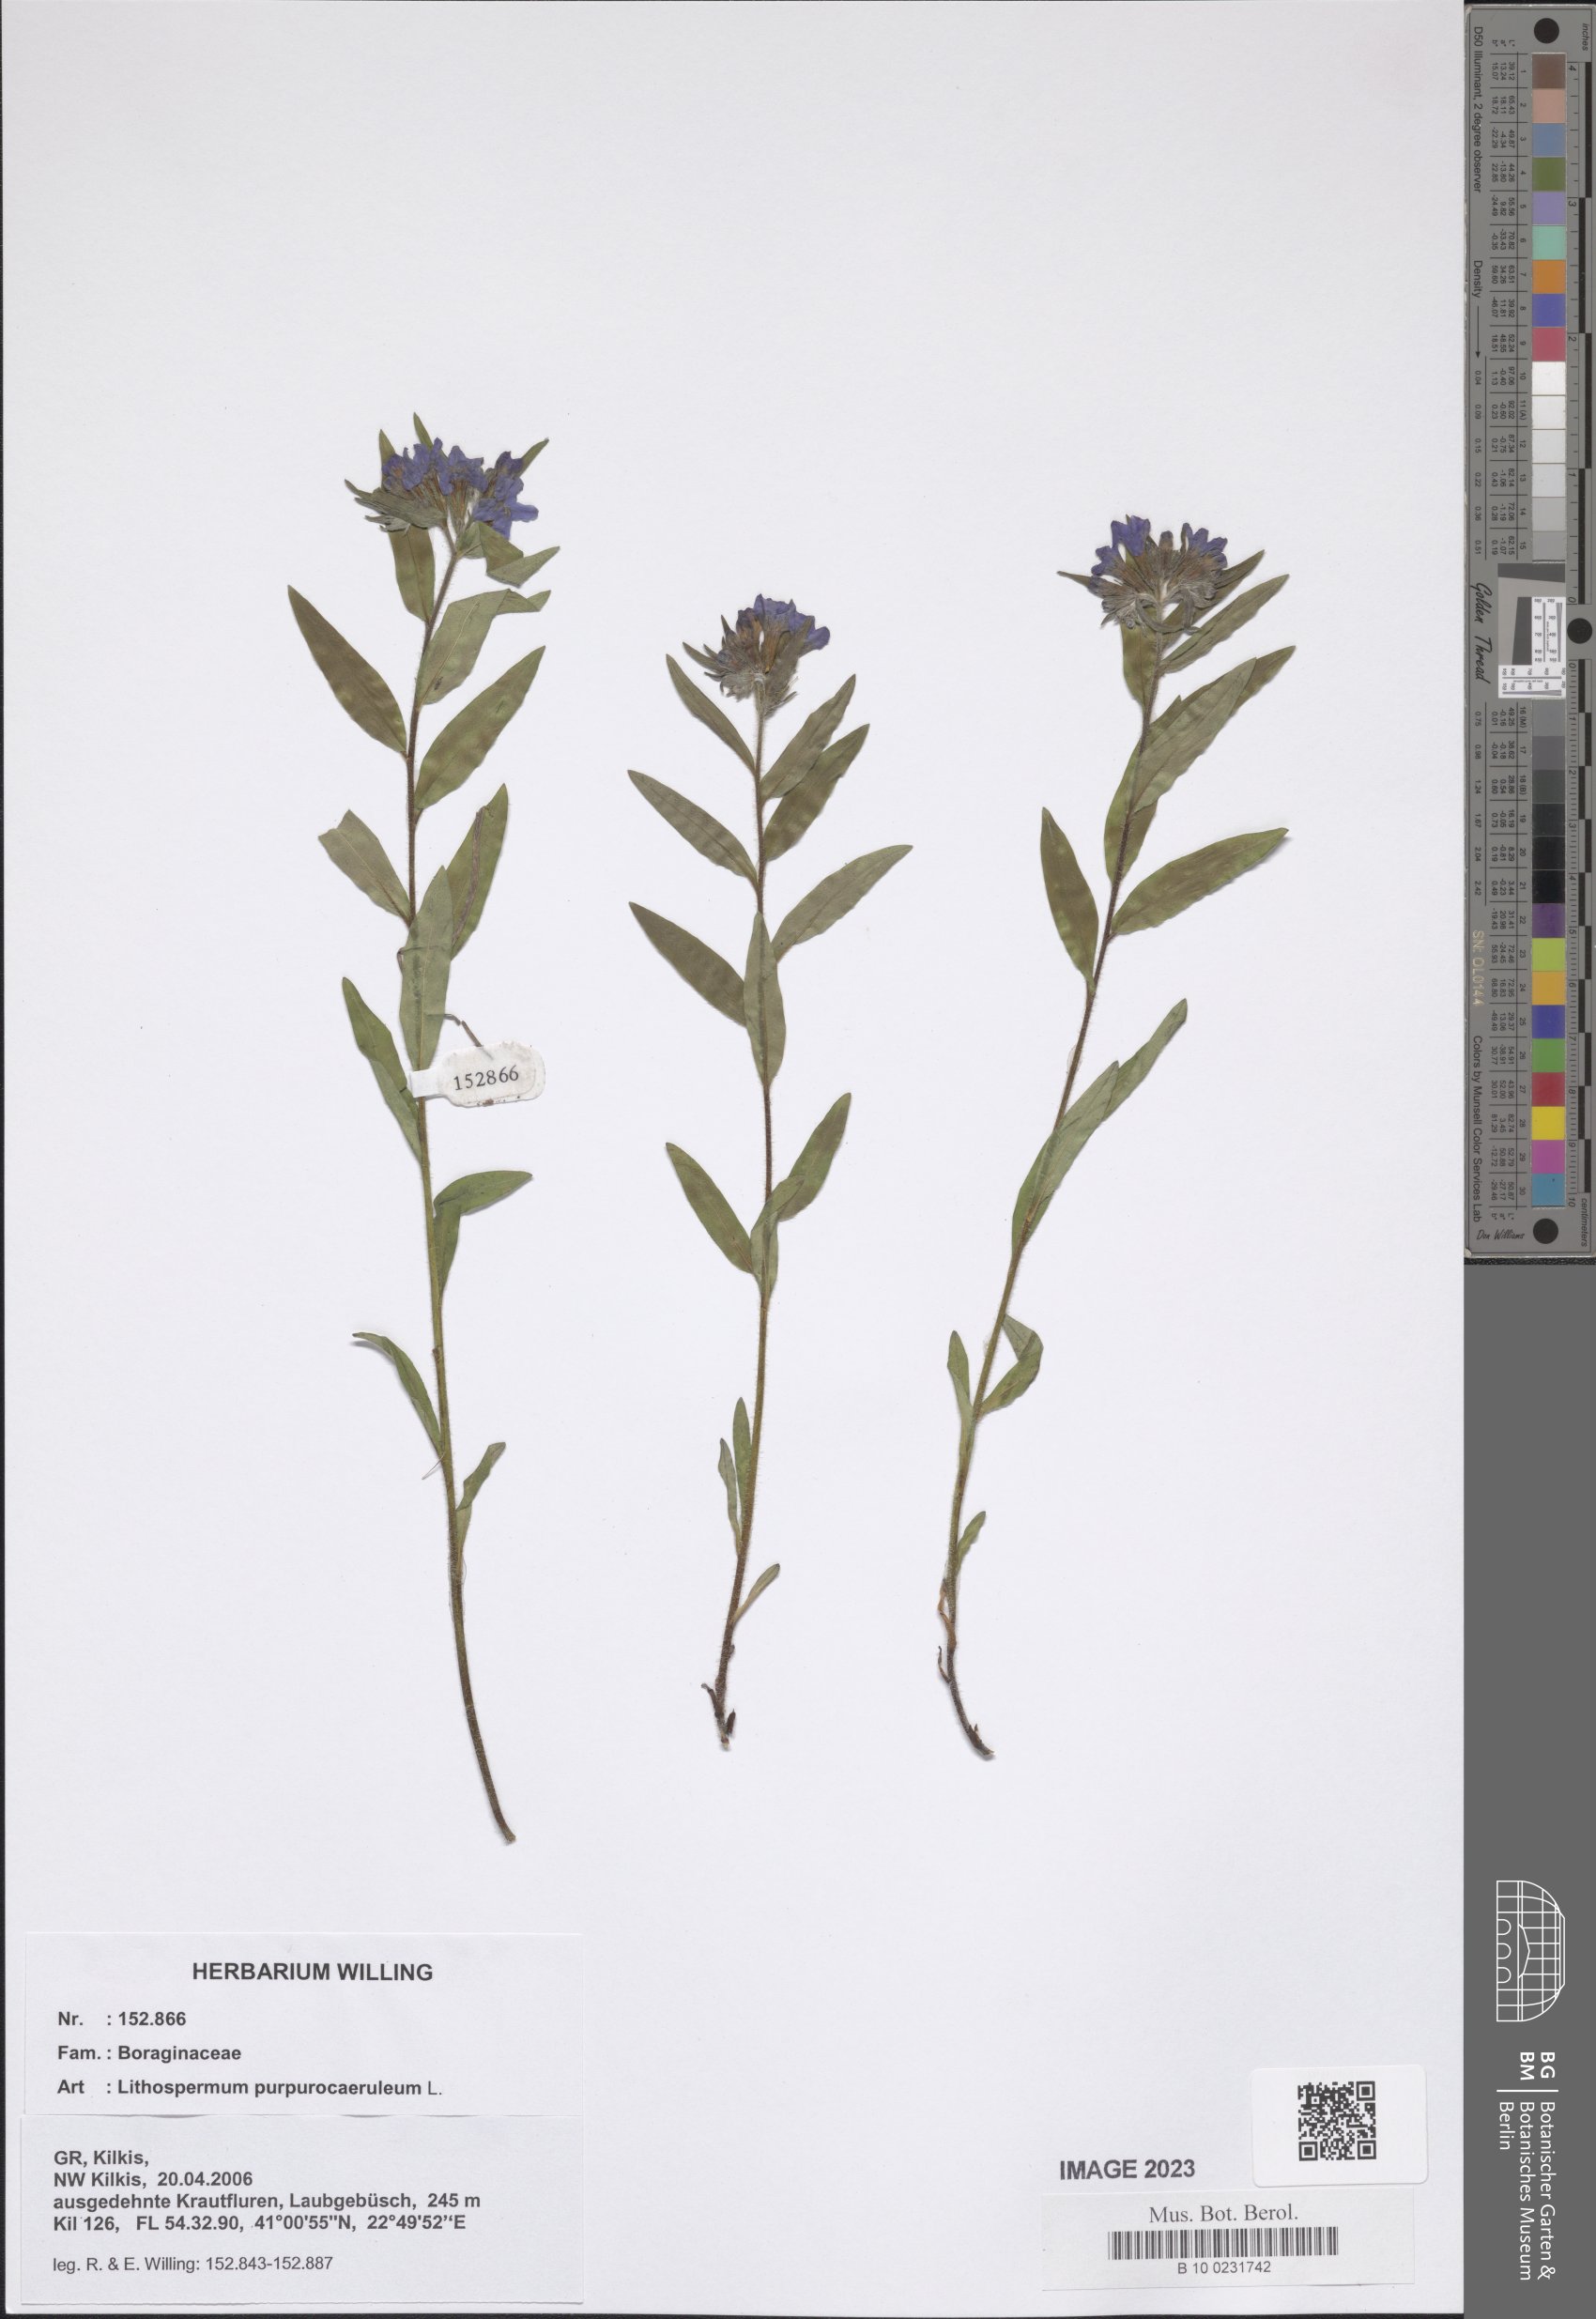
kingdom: Plantae
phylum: Tracheophyta
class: Magnoliopsida
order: Boraginales
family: Boraginaceae
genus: Aegonychon
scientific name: Aegonychon purpurocaeruleum
